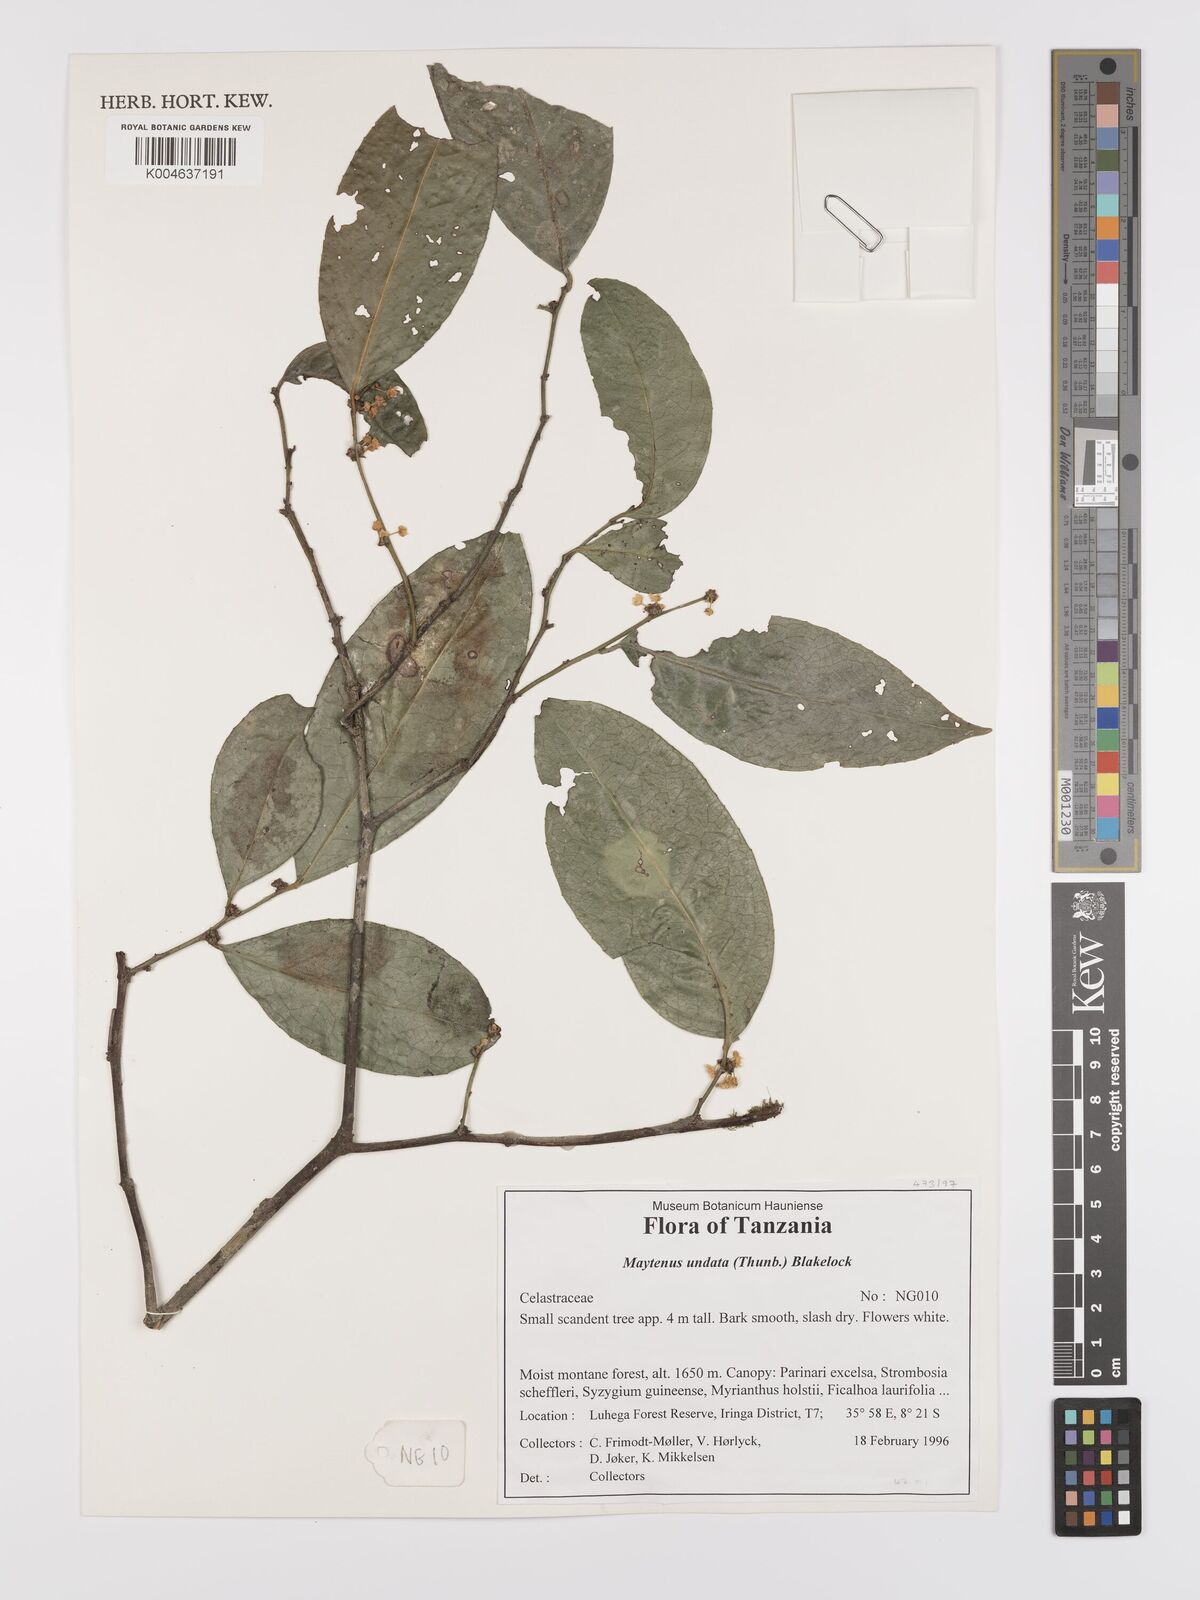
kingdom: Plantae
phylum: Tracheophyta
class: Magnoliopsida
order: Celastrales
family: Celastraceae
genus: Gymnosporia
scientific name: Gymnosporia undata
